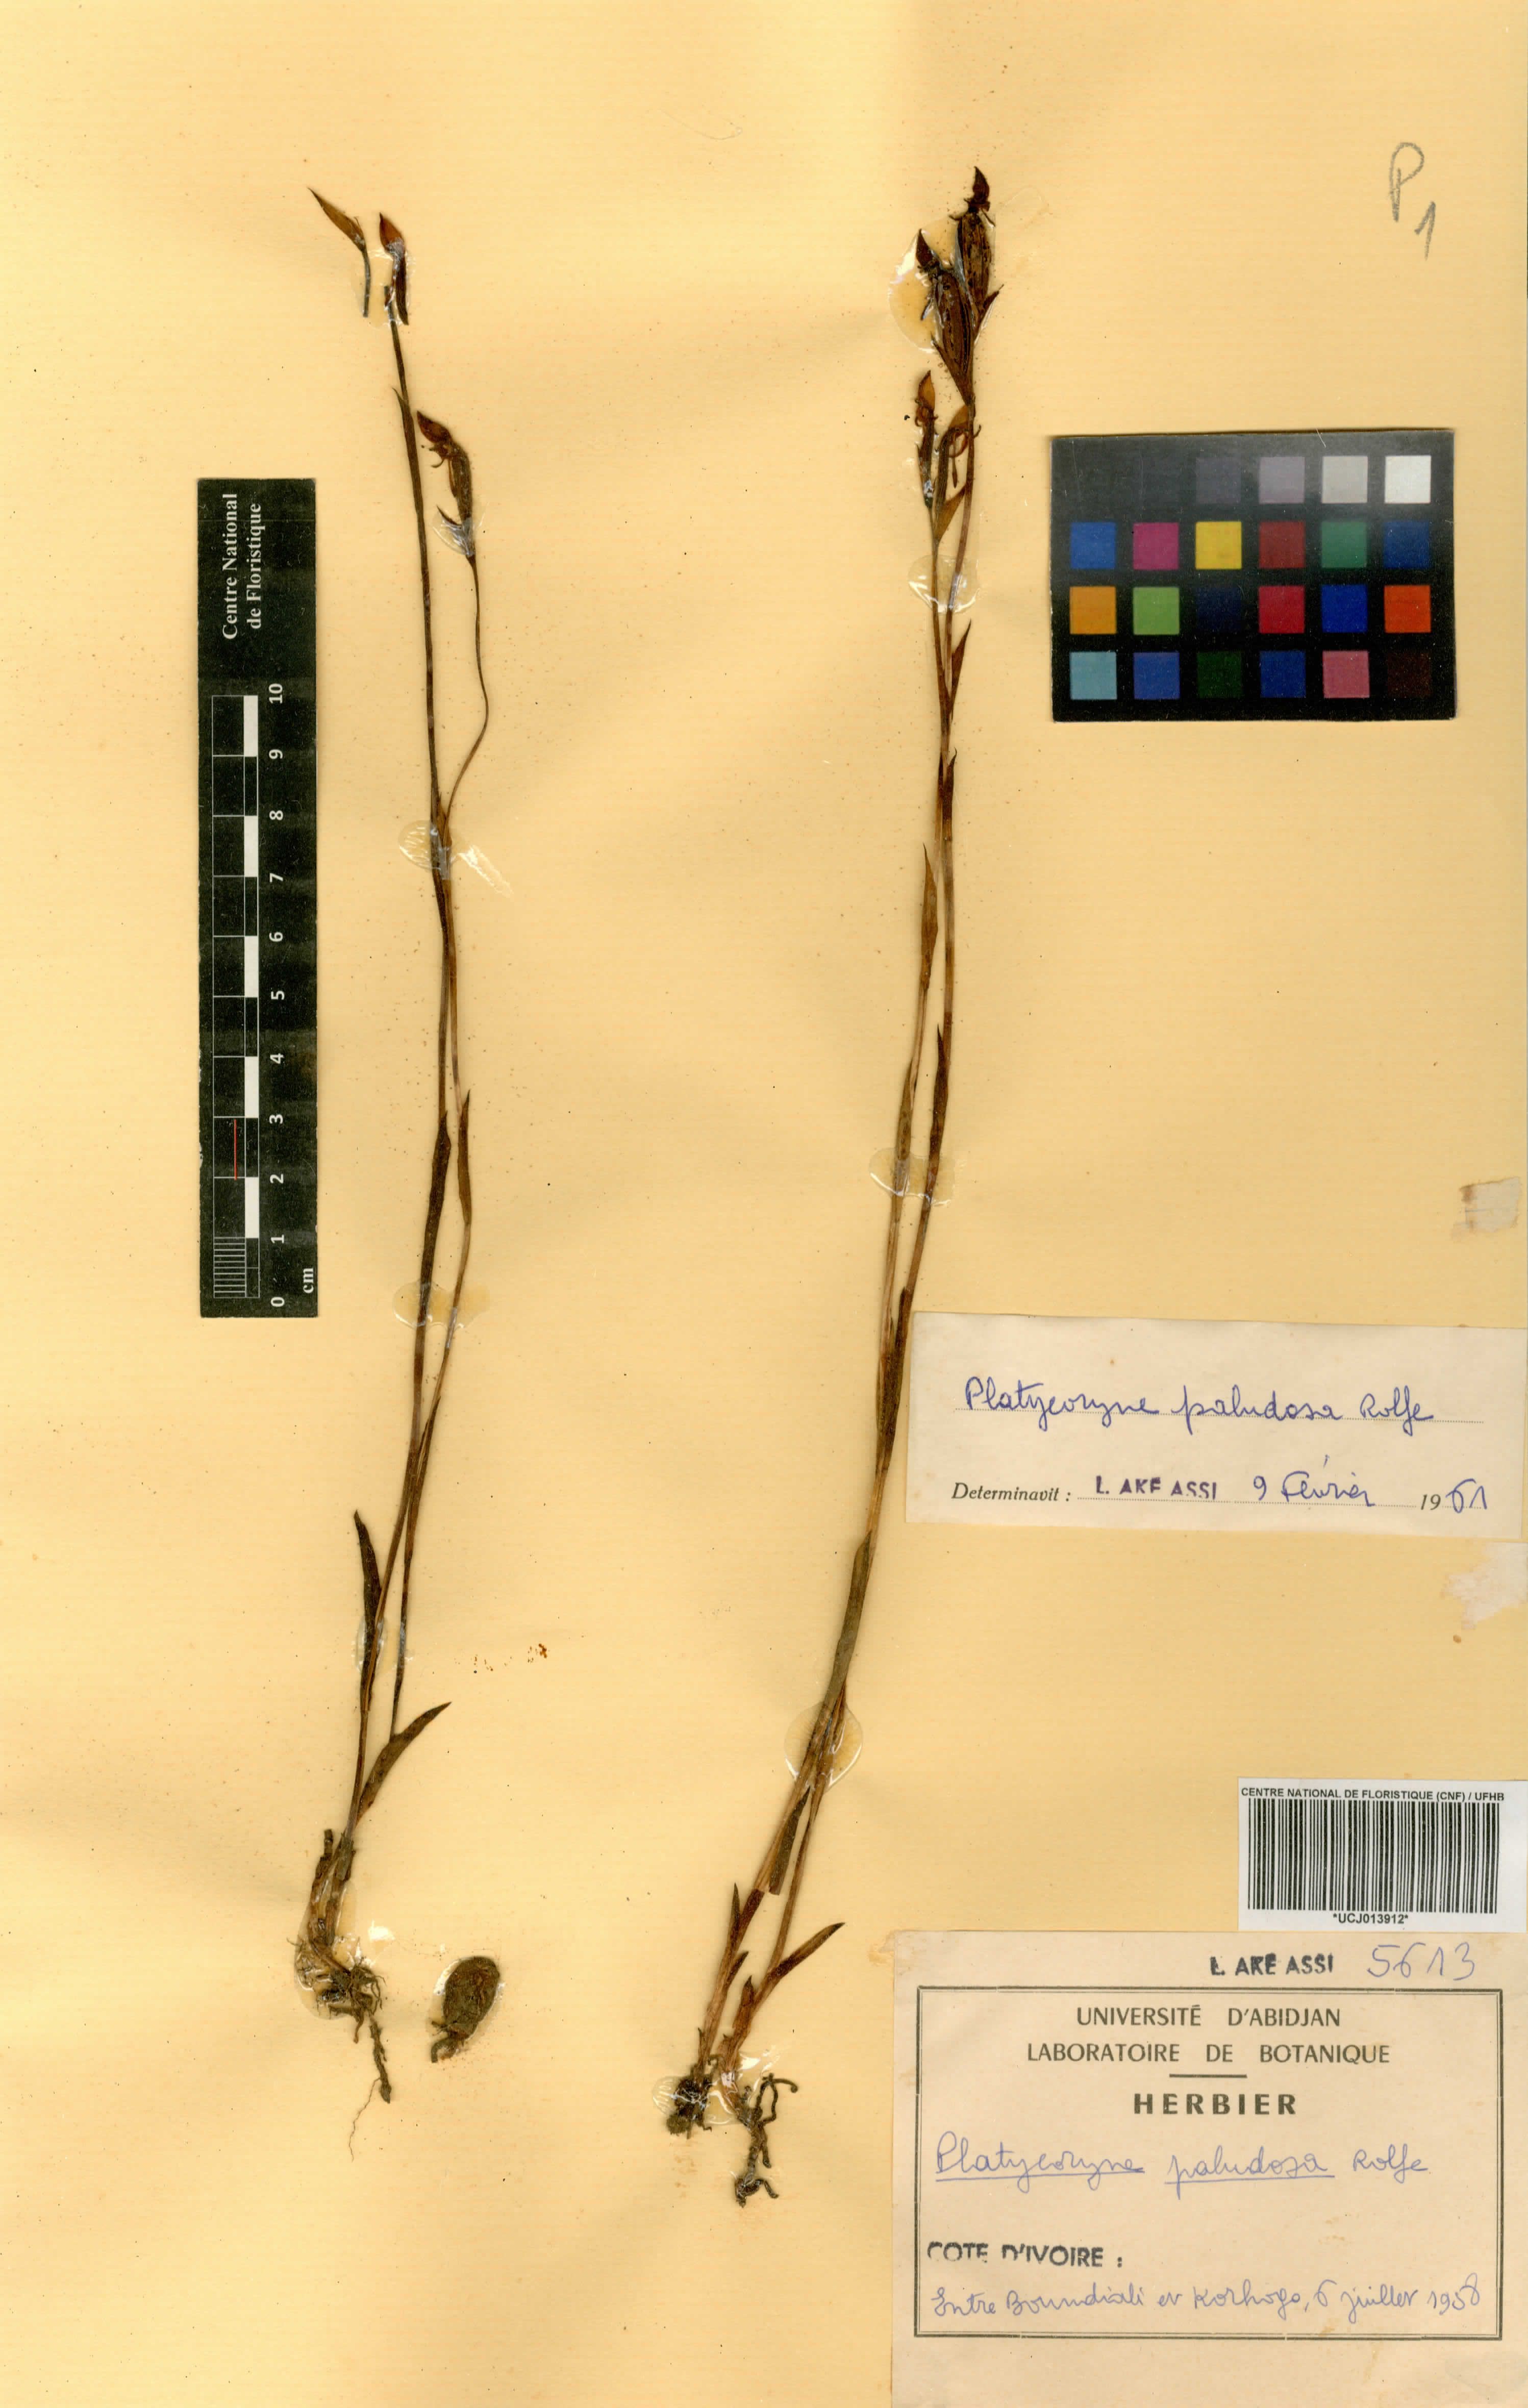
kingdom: Plantae
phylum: Tracheophyta
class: Liliopsida
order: Asparagales
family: Orchidaceae
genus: Platycoryne
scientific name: Platycoryne paludosa
